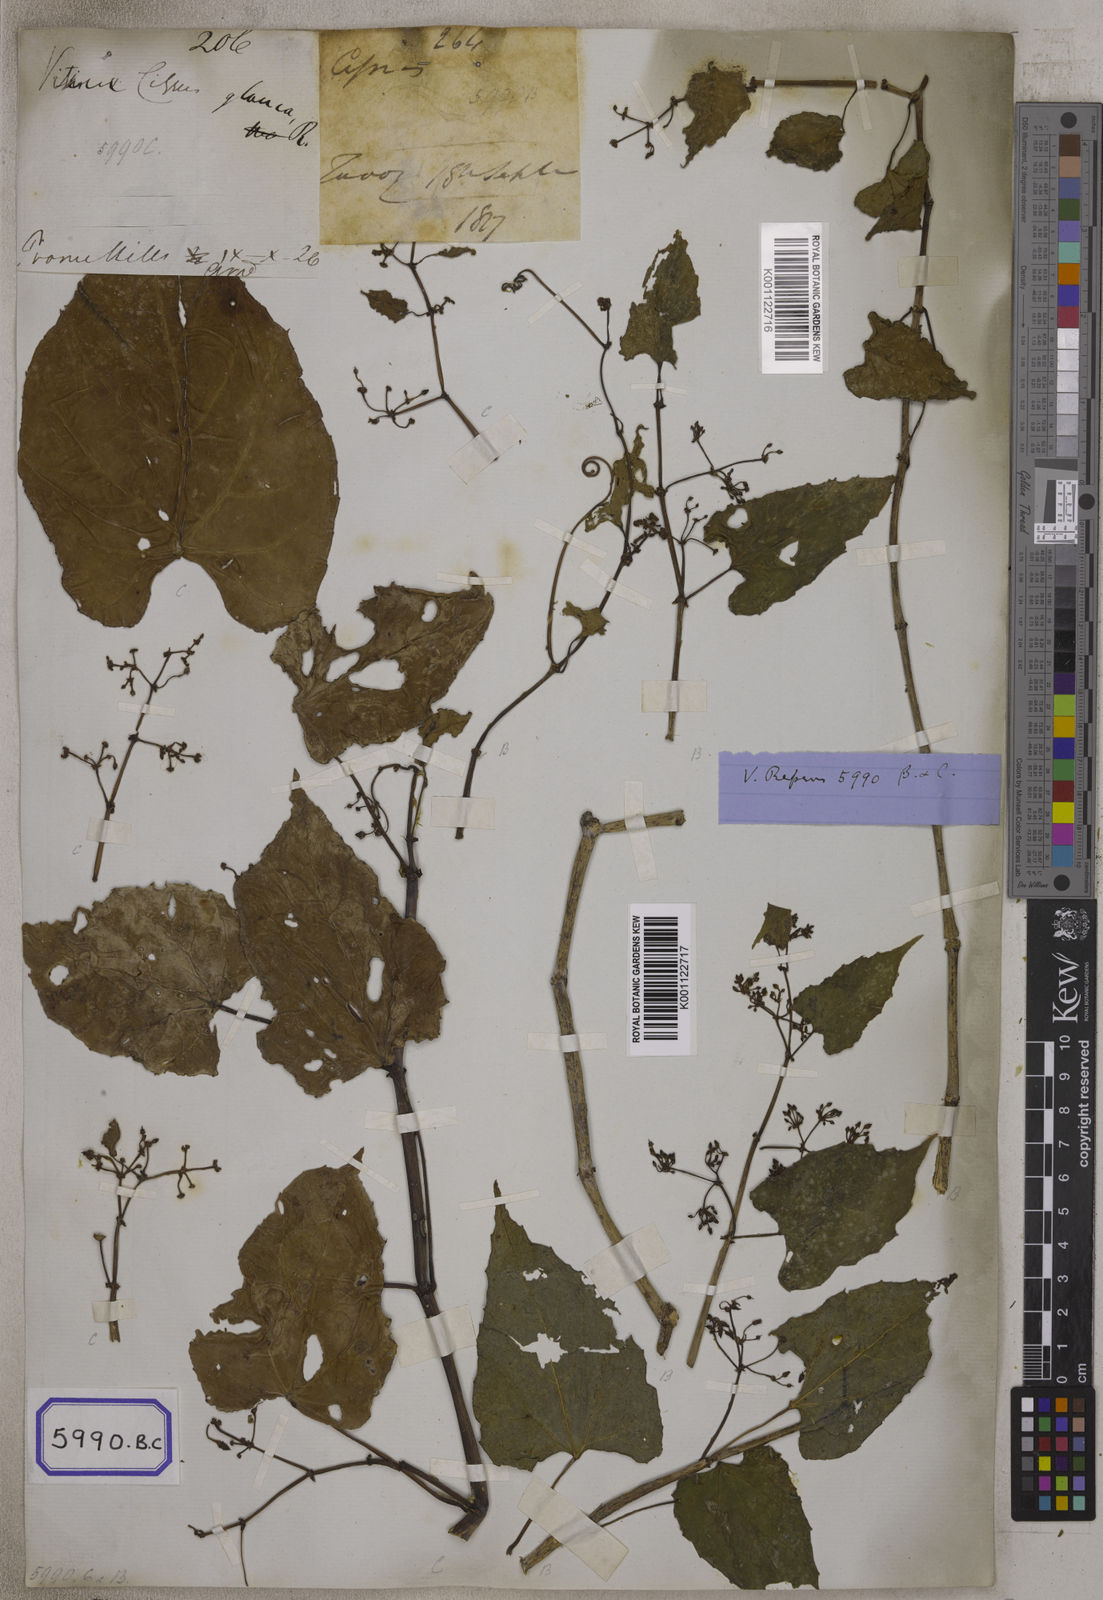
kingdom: Plantae
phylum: Tracheophyta
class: Magnoliopsida
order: Vitales
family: Vitaceae
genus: Cissus
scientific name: Cissus repens
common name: Cissus
